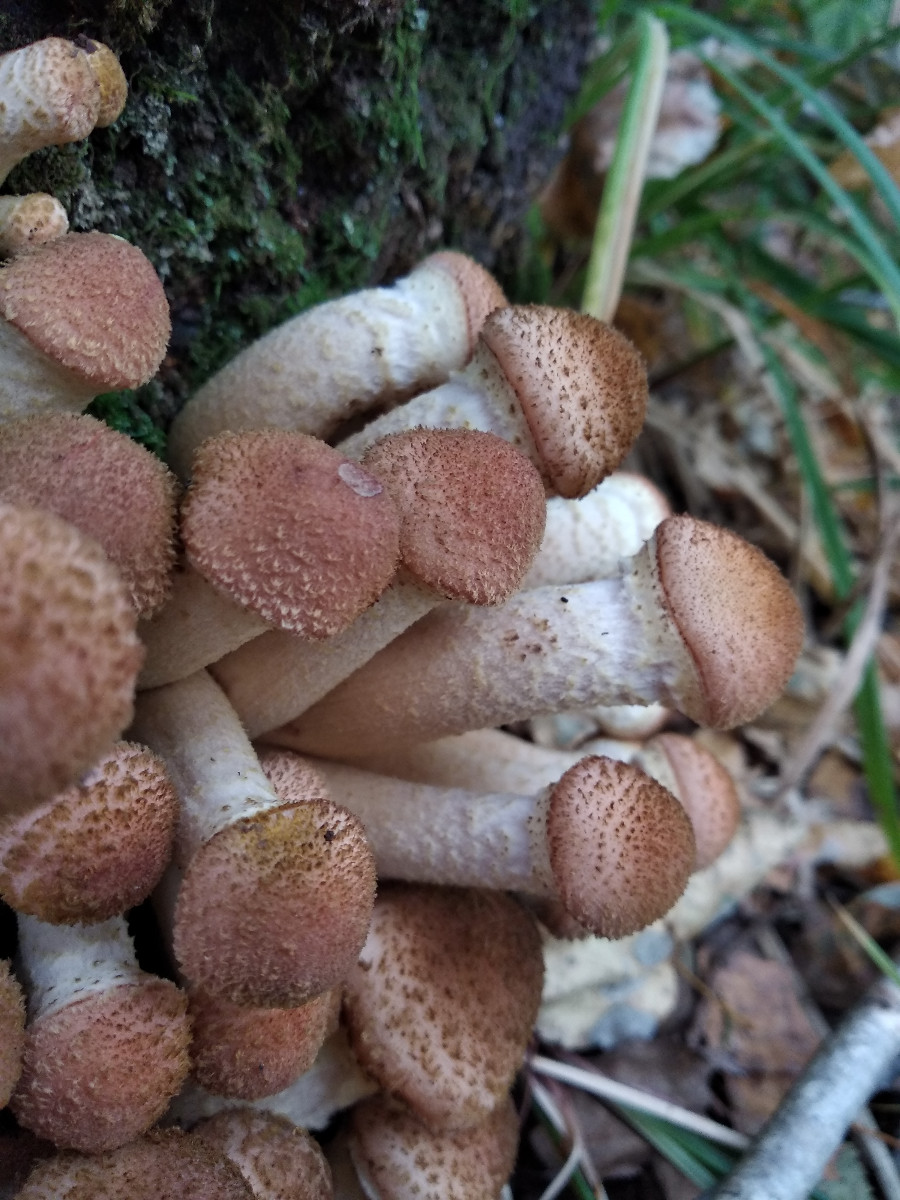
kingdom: Fungi
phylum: Basidiomycota
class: Agaricomycetes
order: Agaricales
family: Physalacriaceae
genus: Armillaria
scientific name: Armillaria ostoyae
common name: mørk honningsvamp
